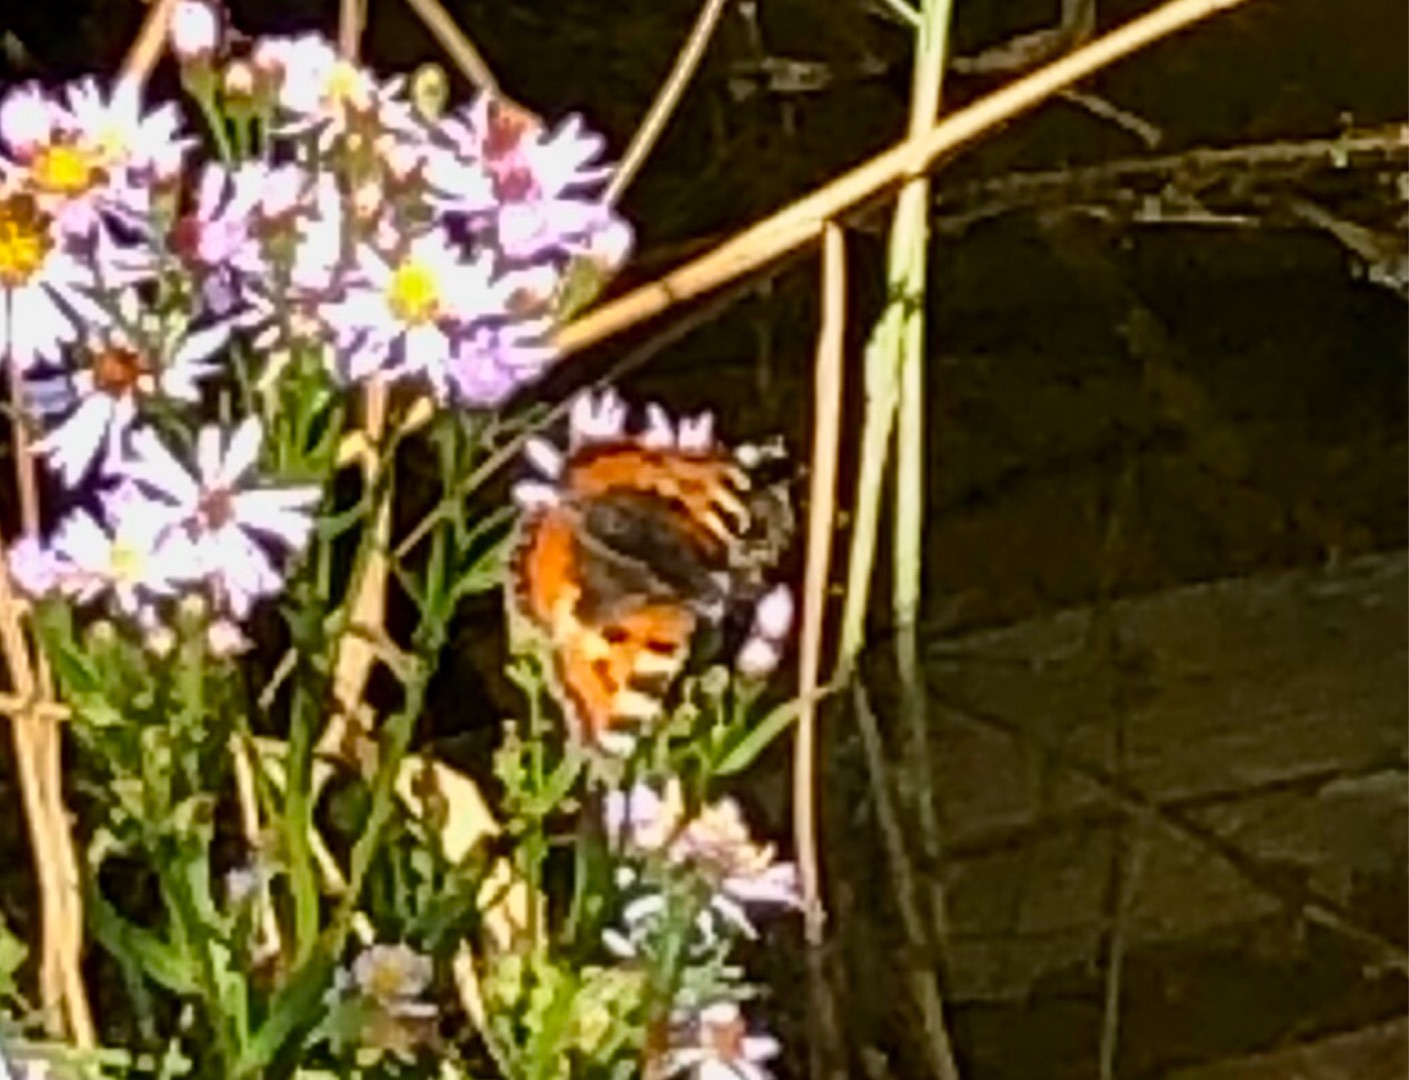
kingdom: Animalia
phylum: Arthropoda
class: Insecta
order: Lepidoptera
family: Nymphalidae
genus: Aglais
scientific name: Aglais urticae
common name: Nældens takvinge
